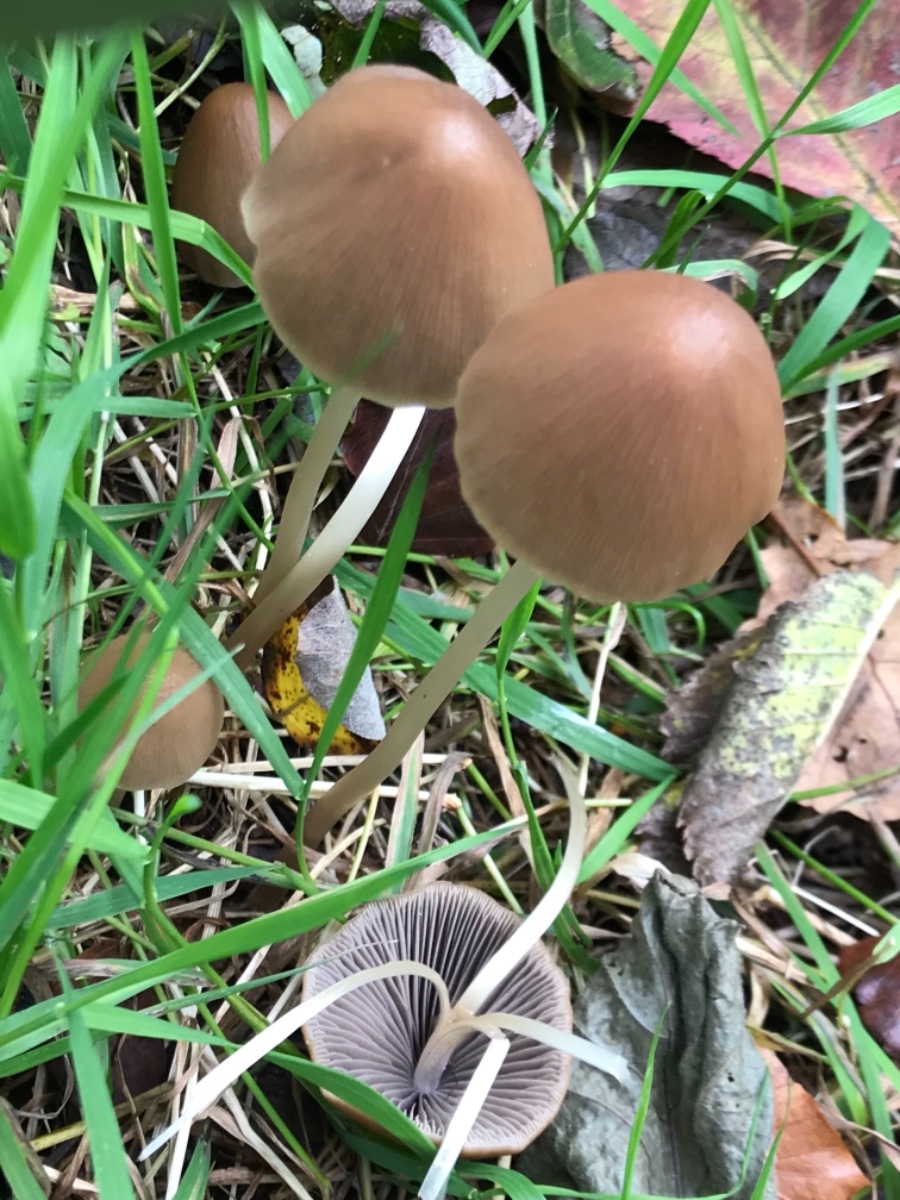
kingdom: Fungi
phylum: Basidiomycota
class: Agaricomycetes
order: Agaricales
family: Psathyrellaceae
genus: Parasola
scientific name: Parasola conopilea
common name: kegle-hjulhat
